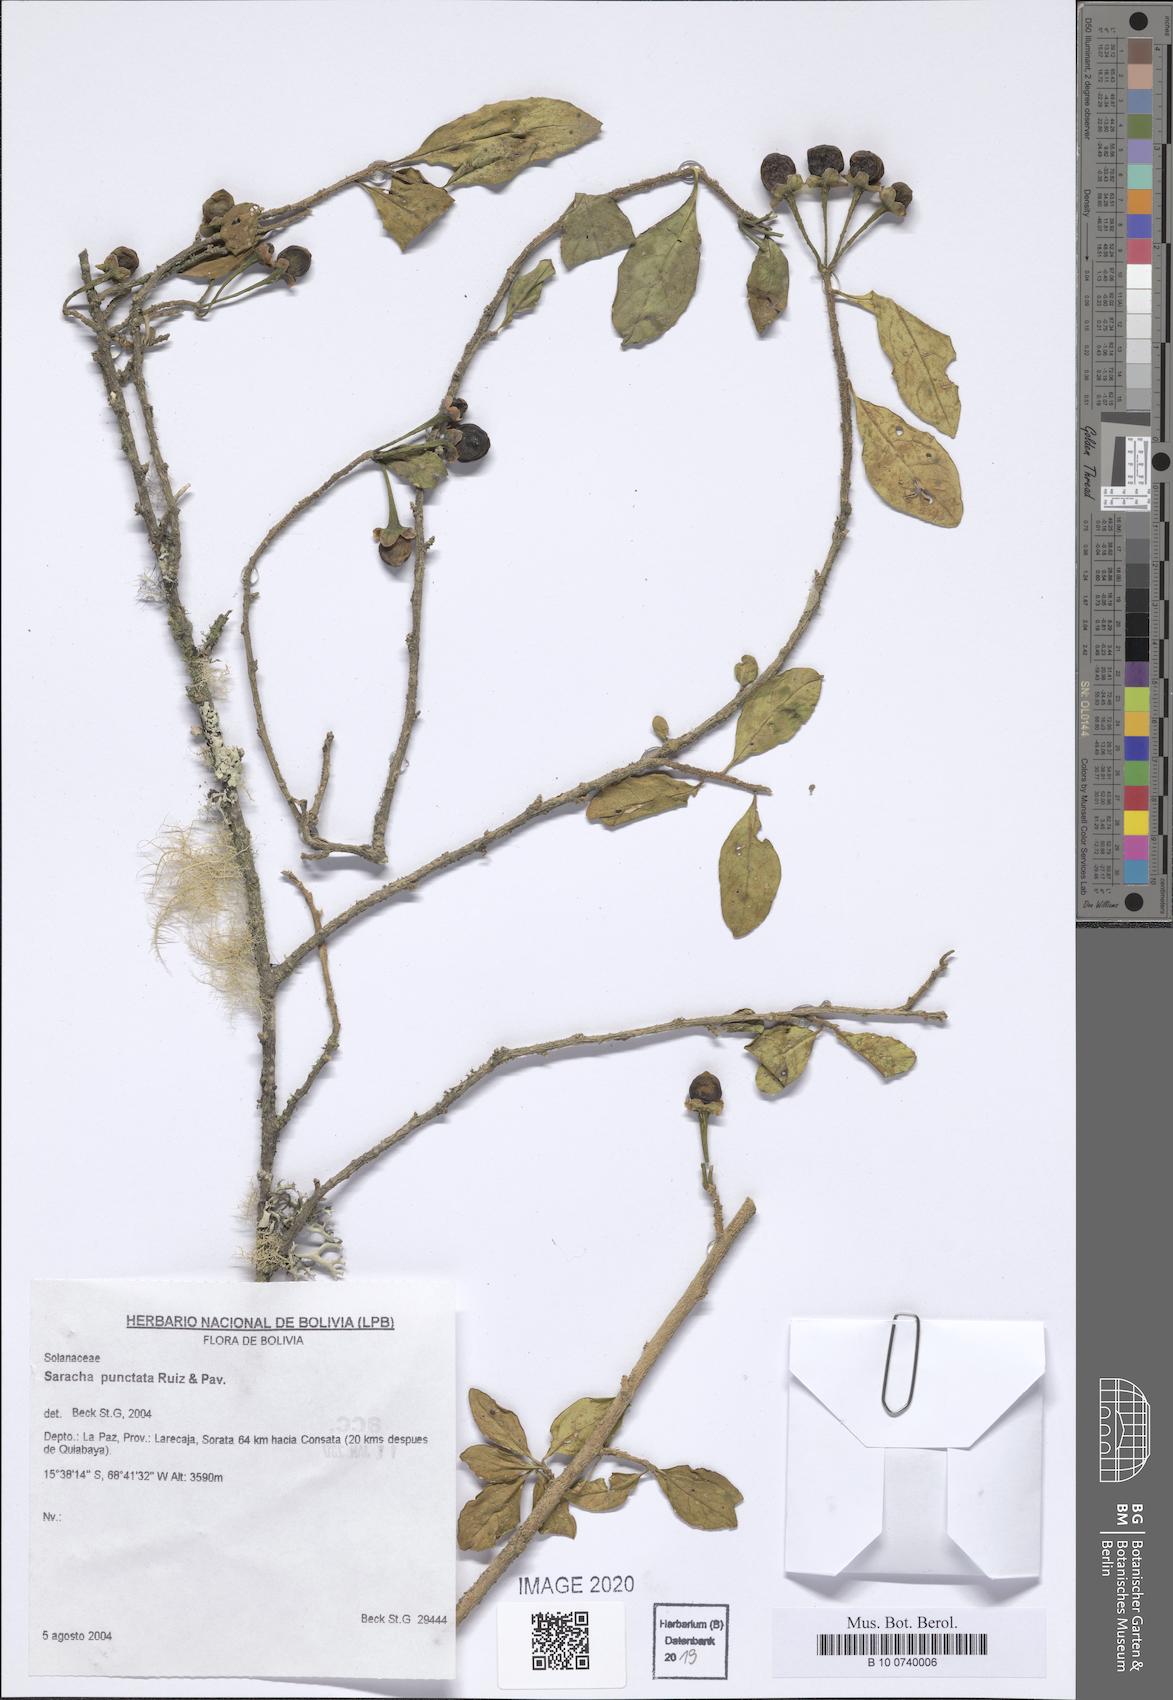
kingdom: Plantae
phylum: Tracheophyta
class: Magnoliopsida
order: Solanales
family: Solanaceae
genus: Saracha
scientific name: Saracha punctata
